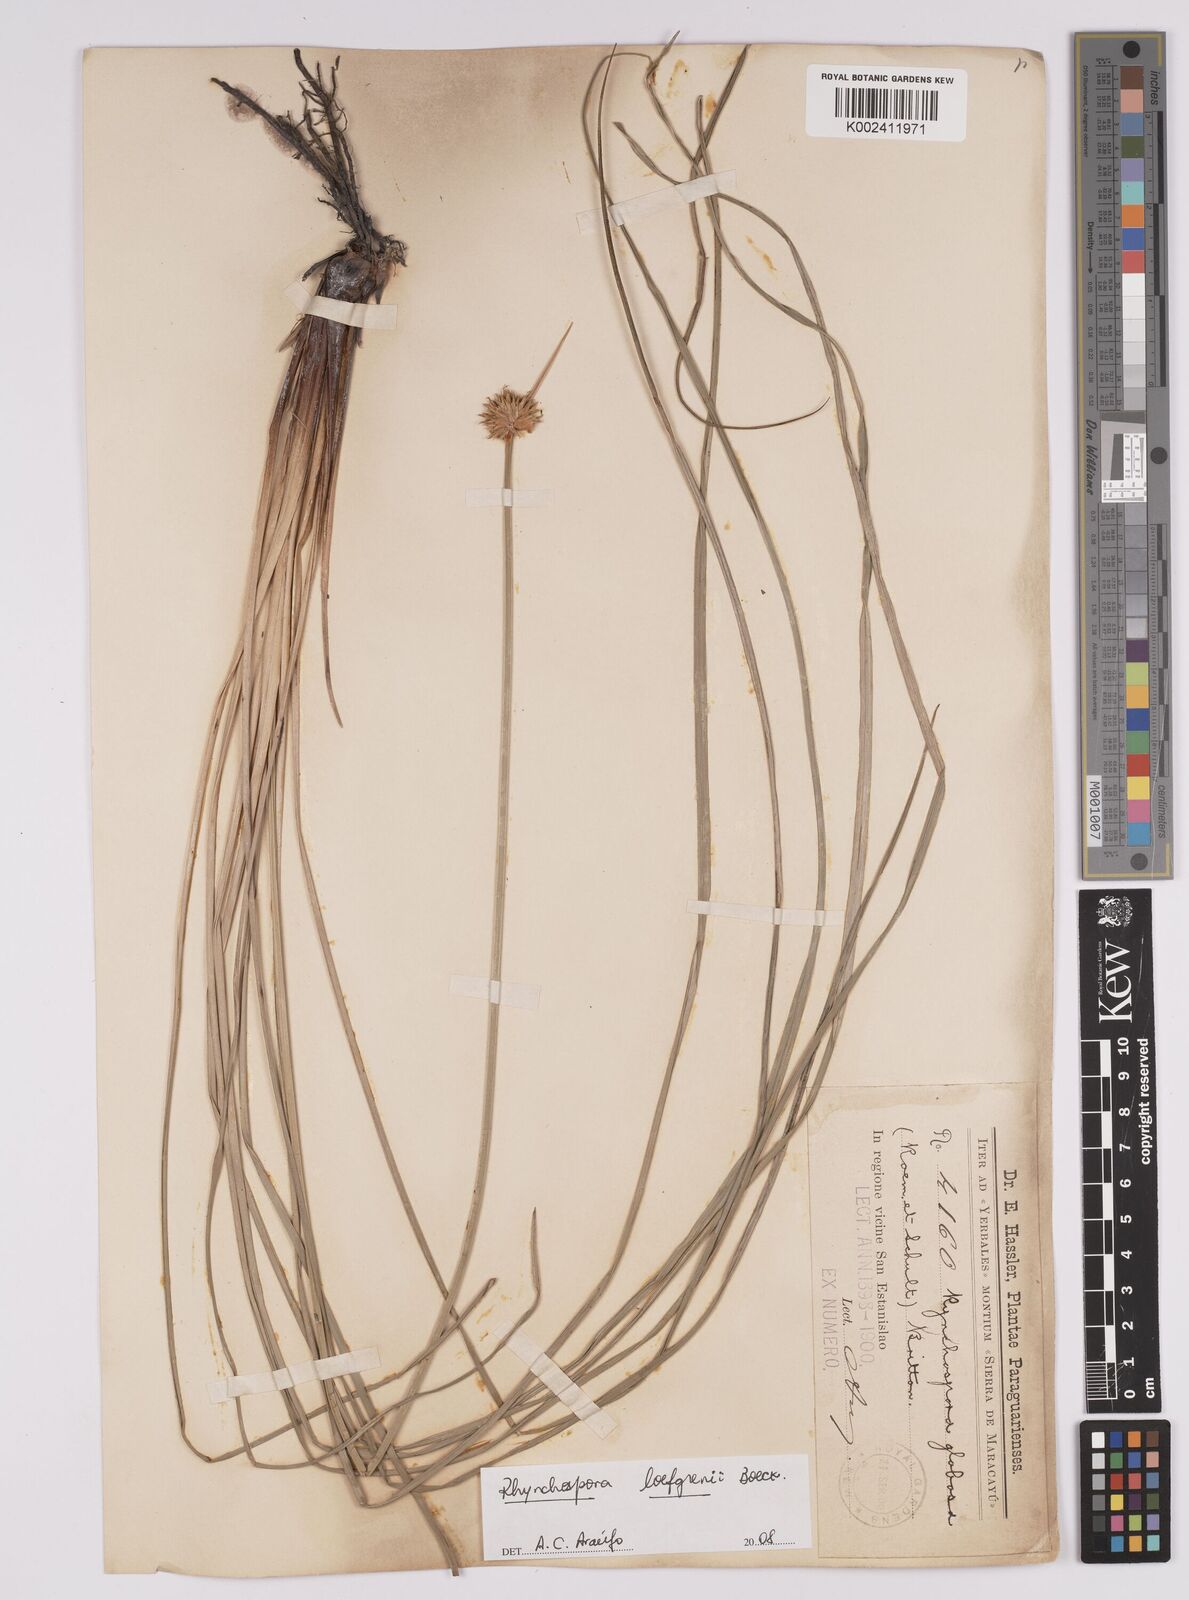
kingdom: Plantae
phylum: Tracheophyta
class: Liliopsida
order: Poales
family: Cyperaceae
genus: Rhynchospora
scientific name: Rhynchospora loefgrenii
